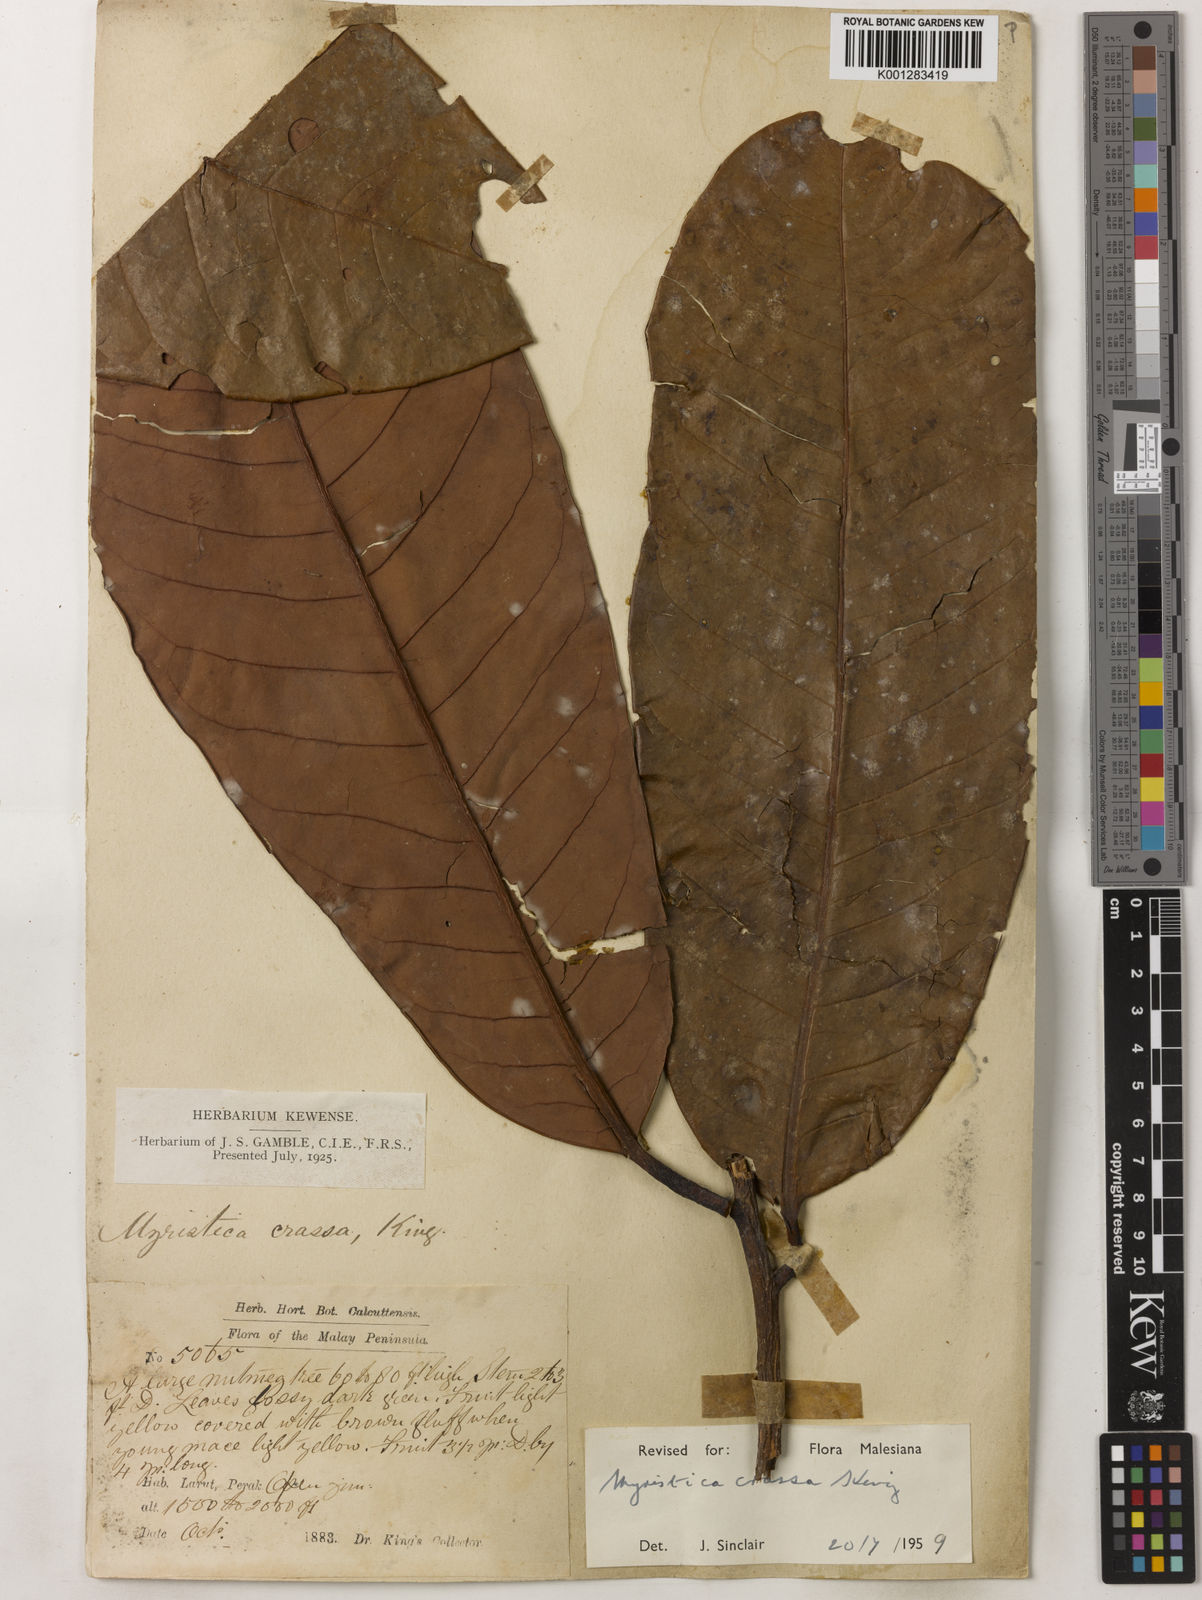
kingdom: Plantae
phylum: Tracheophyta
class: Magnoliopsida
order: Magnoliales
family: Myristicaceae
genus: Myristica
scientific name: Myristica crassa
